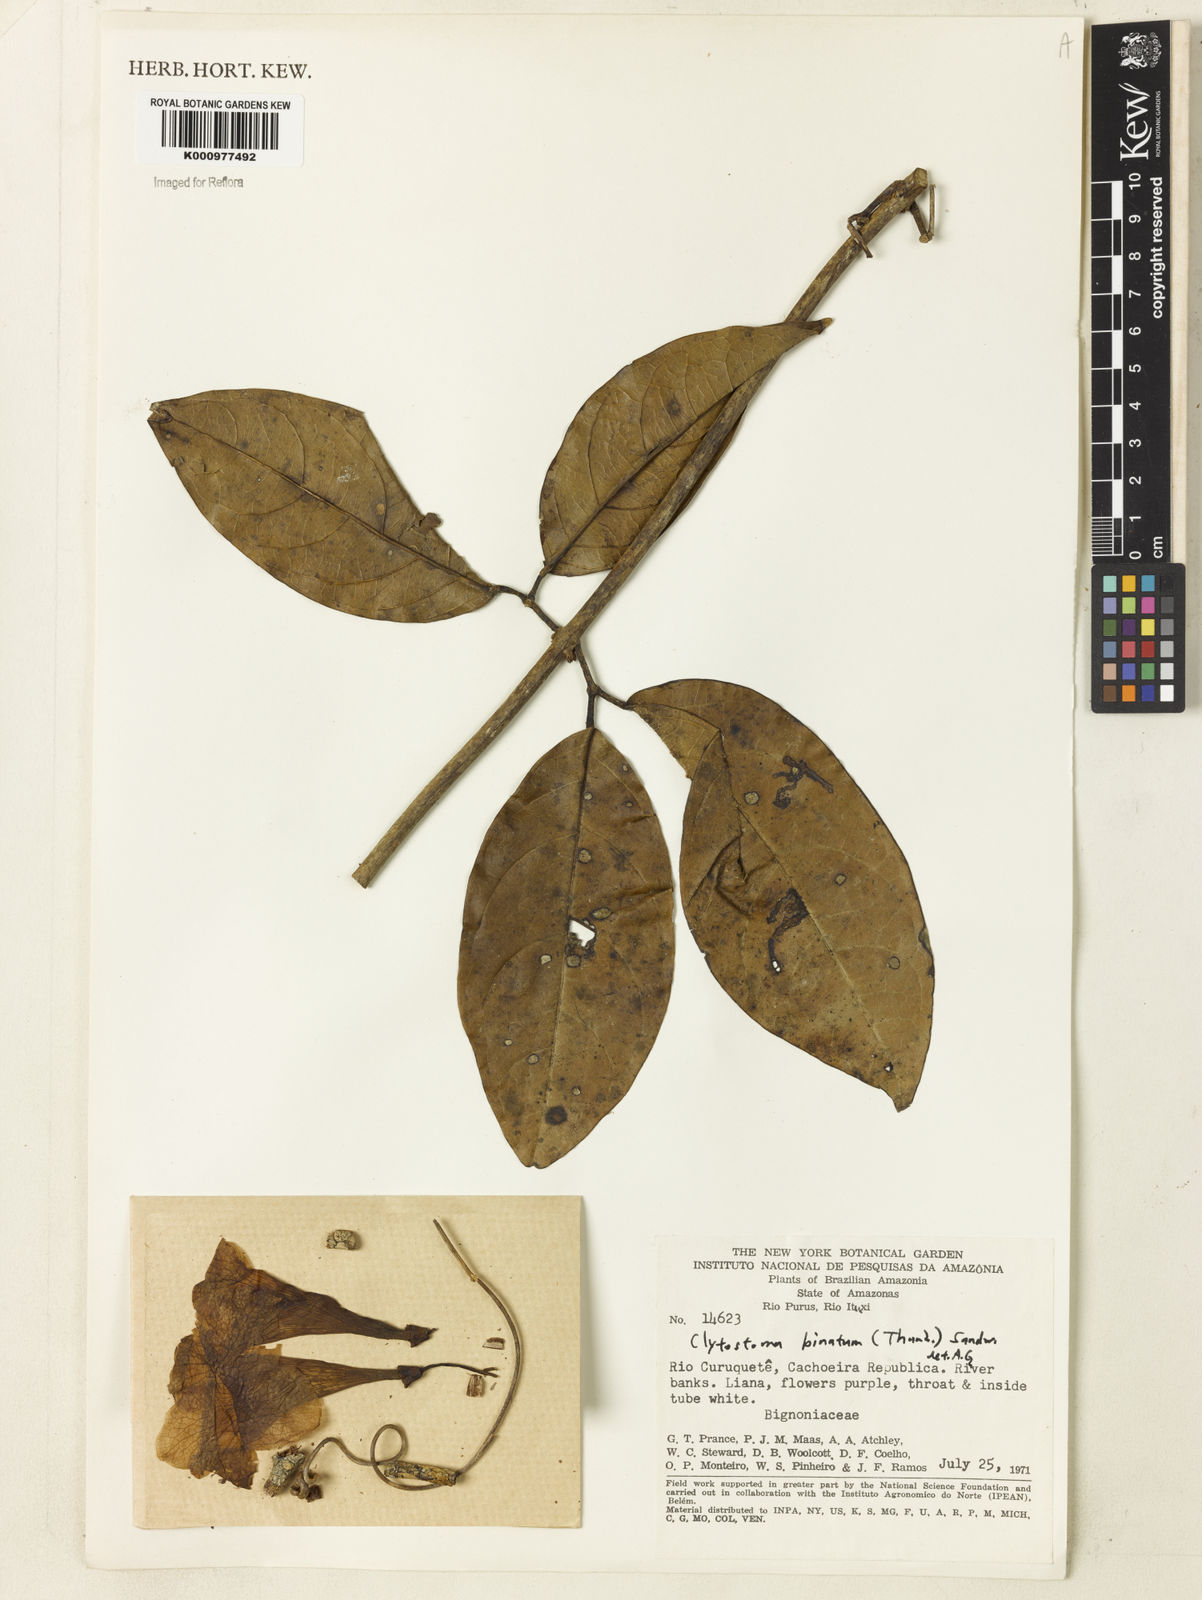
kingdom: Plantae
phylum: Tracheophyta
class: Magnoliopsida
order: Lamiales
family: Bignoniaceae
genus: Bignonia
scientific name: Bignonia binata
